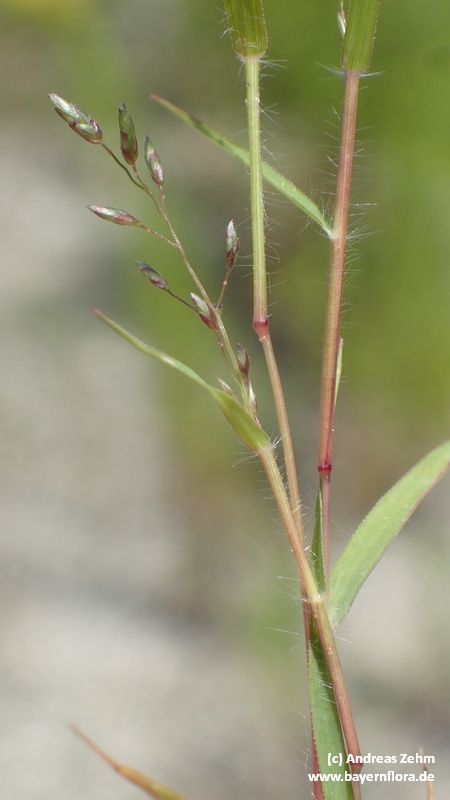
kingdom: Plantae
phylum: Tracheophyta
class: Liliopsida
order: Poales
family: Poaceae
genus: Eragrostis
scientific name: Eragrostis minor
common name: Small love-grass
